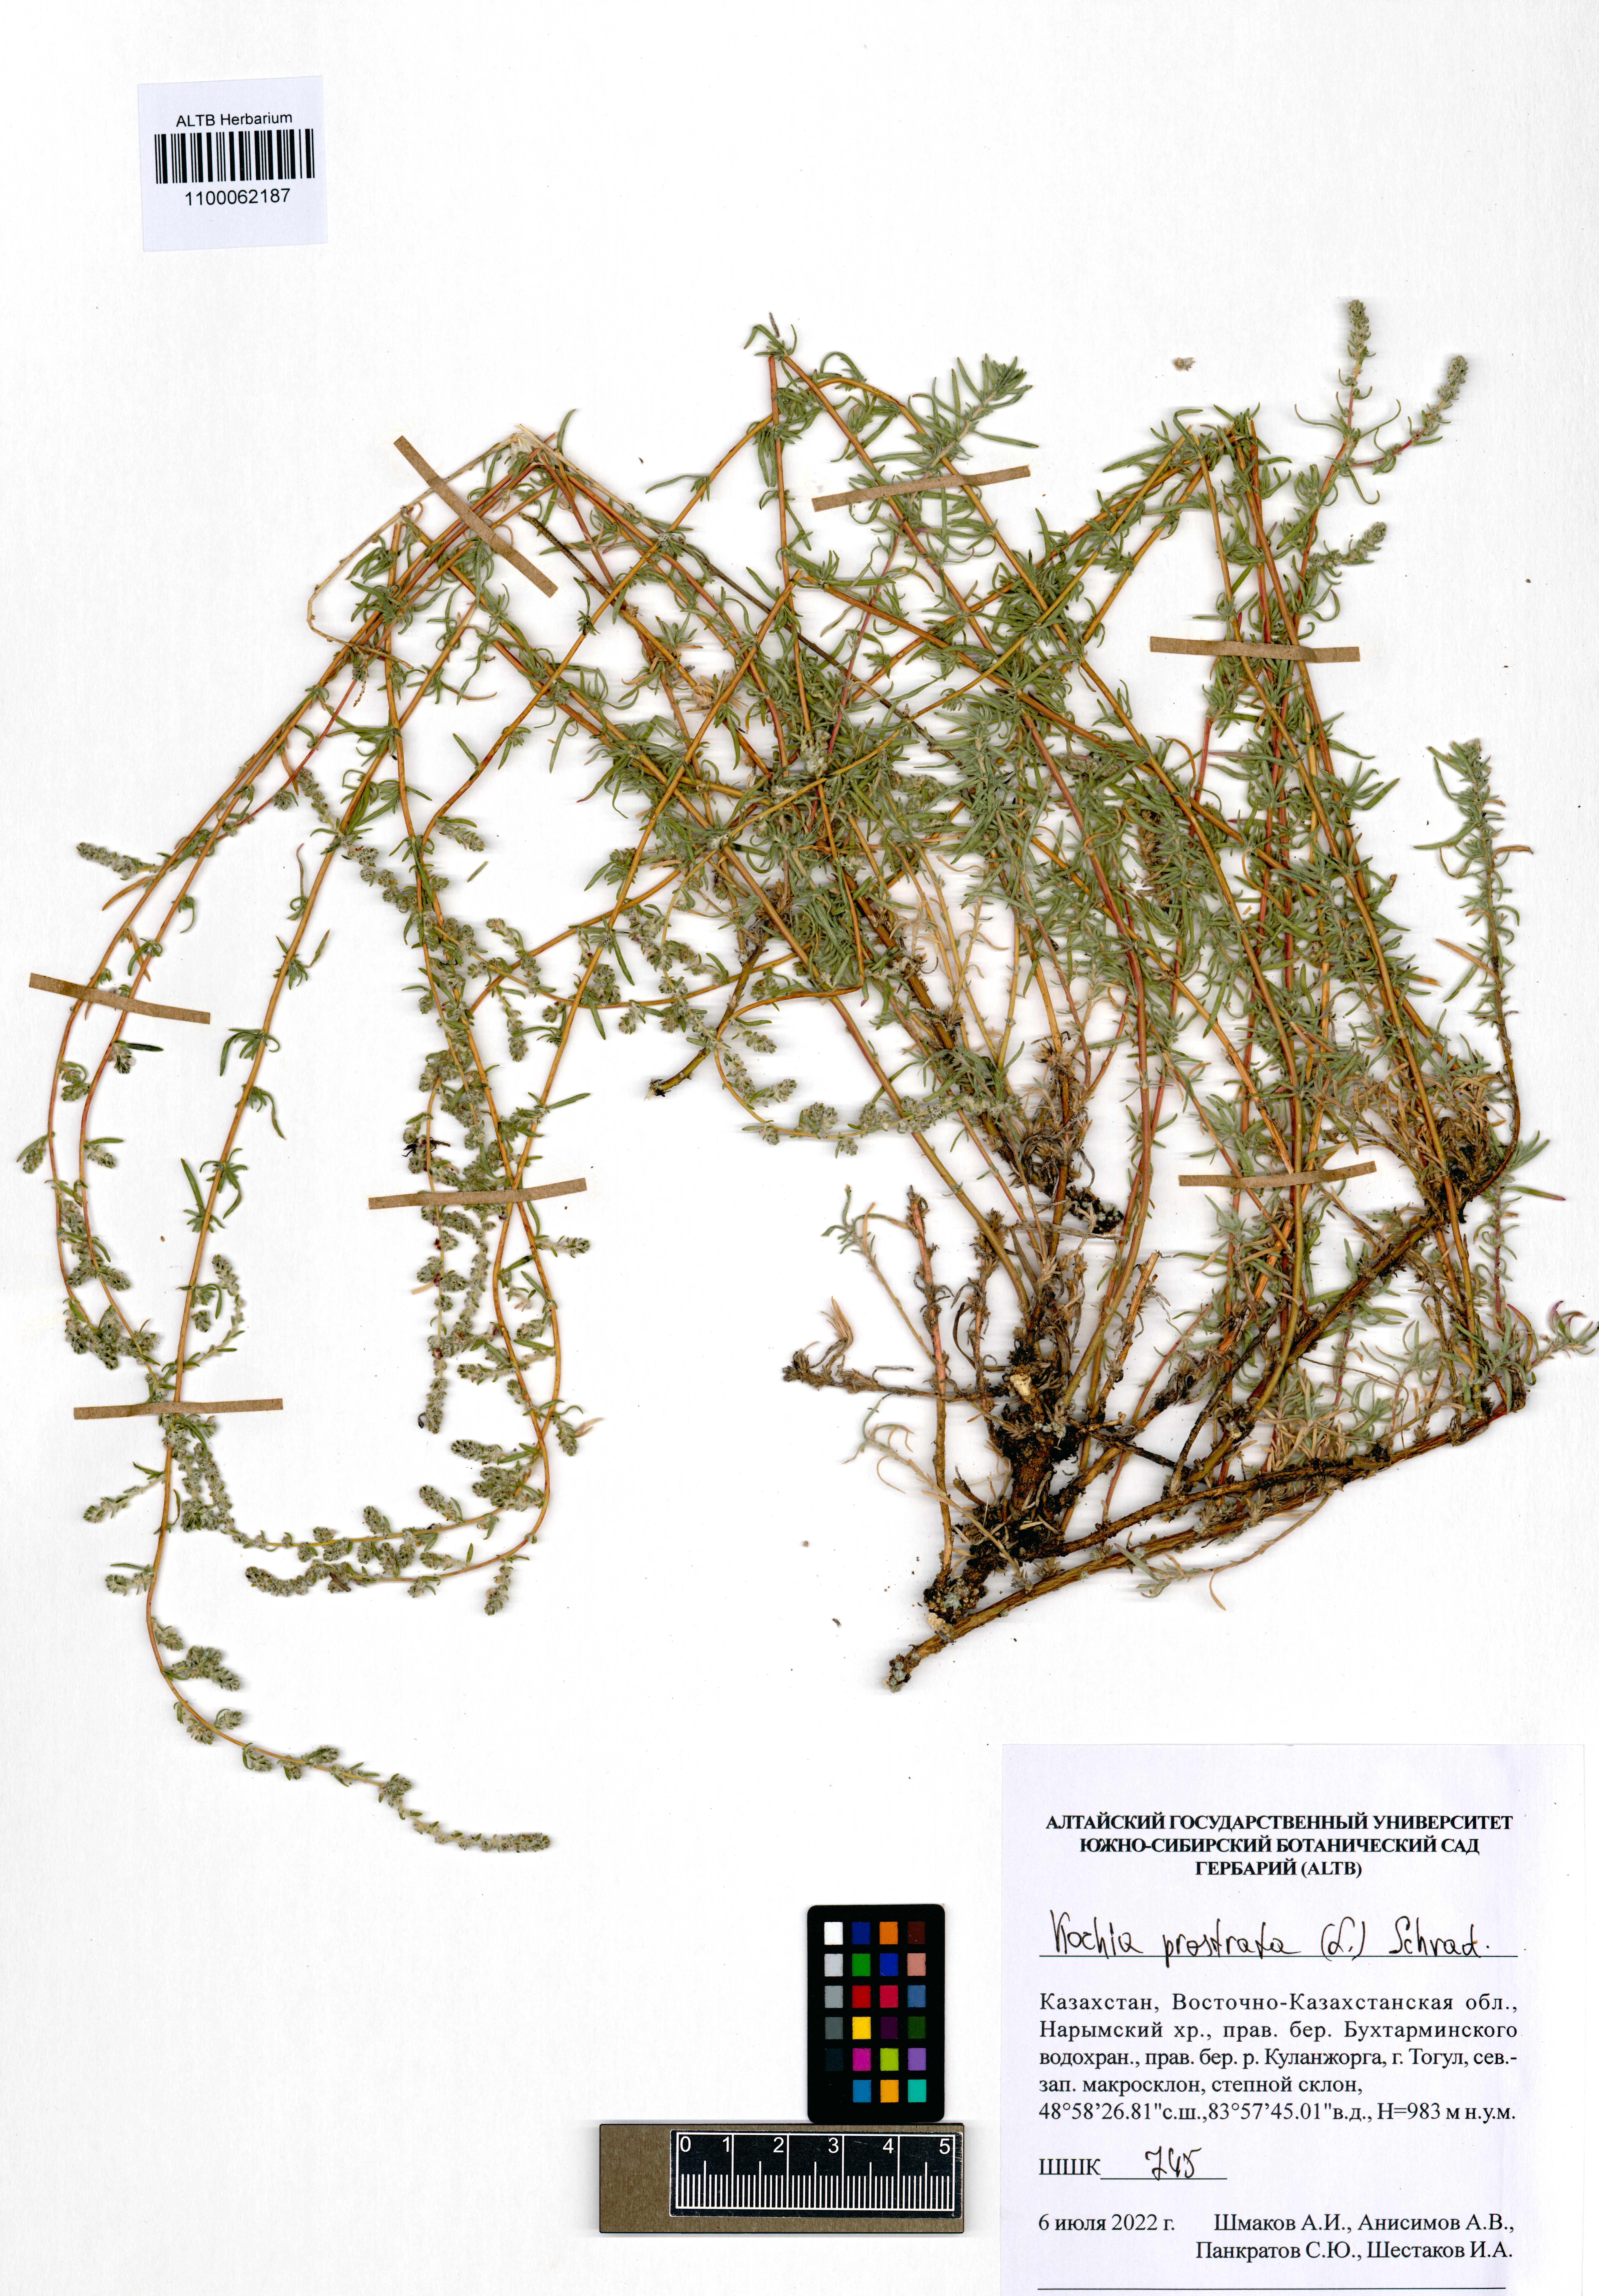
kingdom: Plantae
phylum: Tracheophyta
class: Magnoliopsida
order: Caryophyllales
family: Amaranthaceae
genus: Bassia
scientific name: Bassia prostrata
